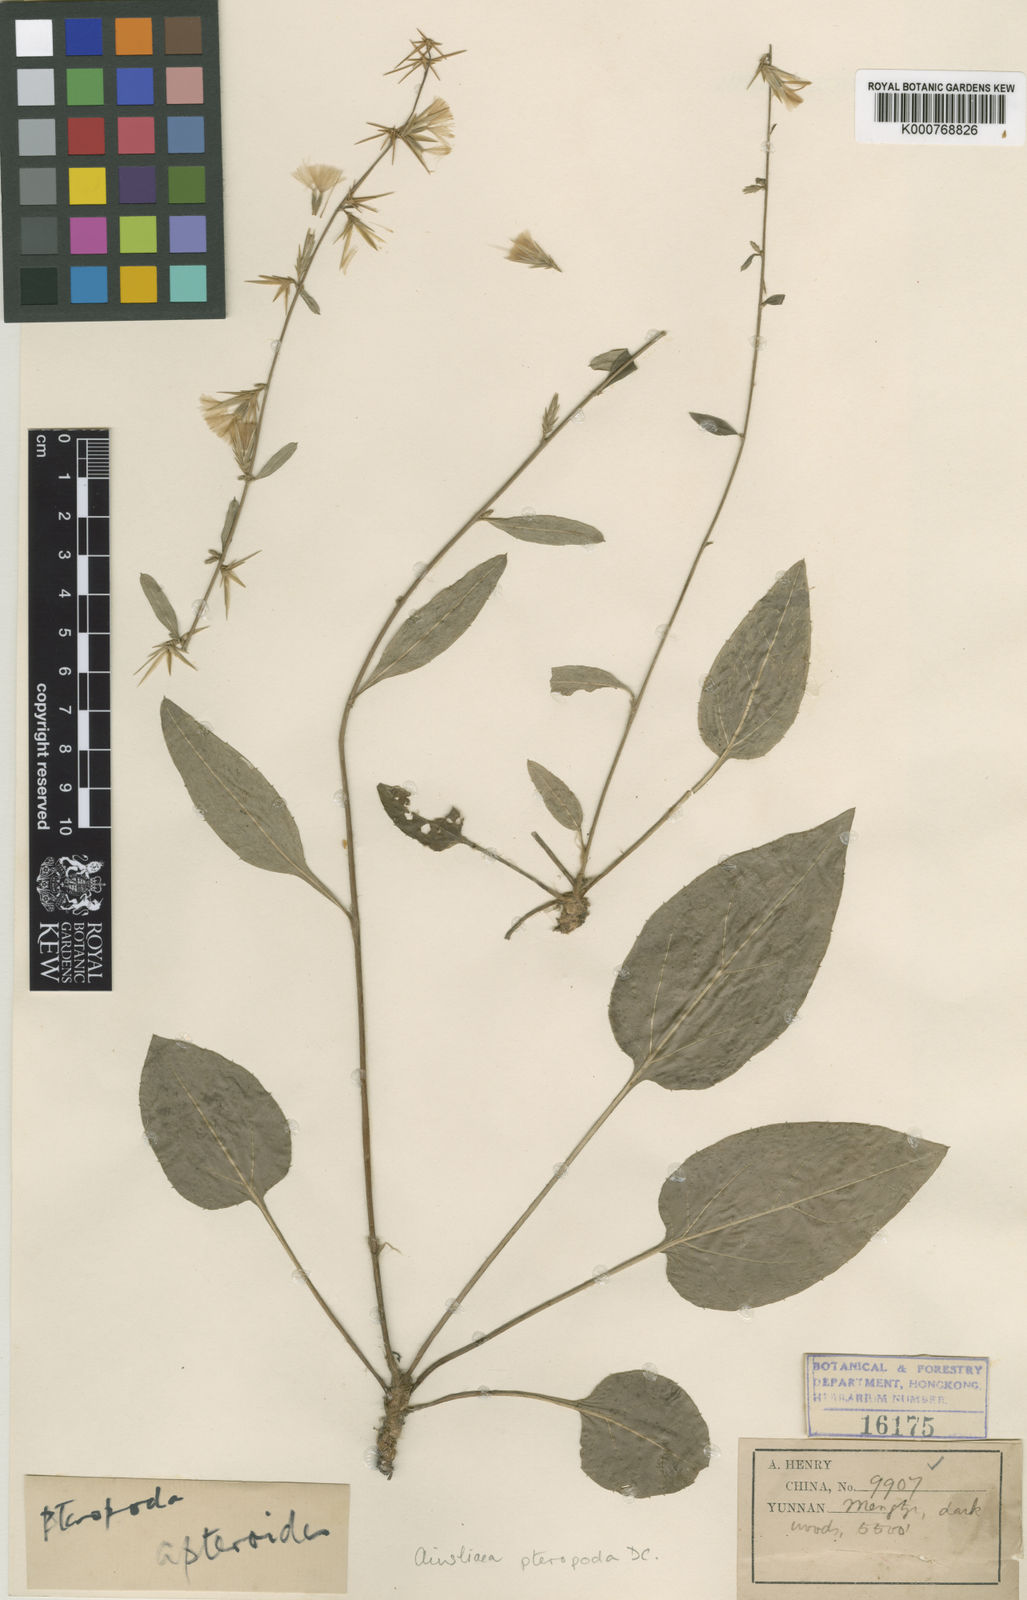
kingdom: Plantae
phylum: Tracheophyta
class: Magnoliopsida
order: Asterales
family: Asteraceae
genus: Ainsliaea
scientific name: Ainsliaea apteroides
